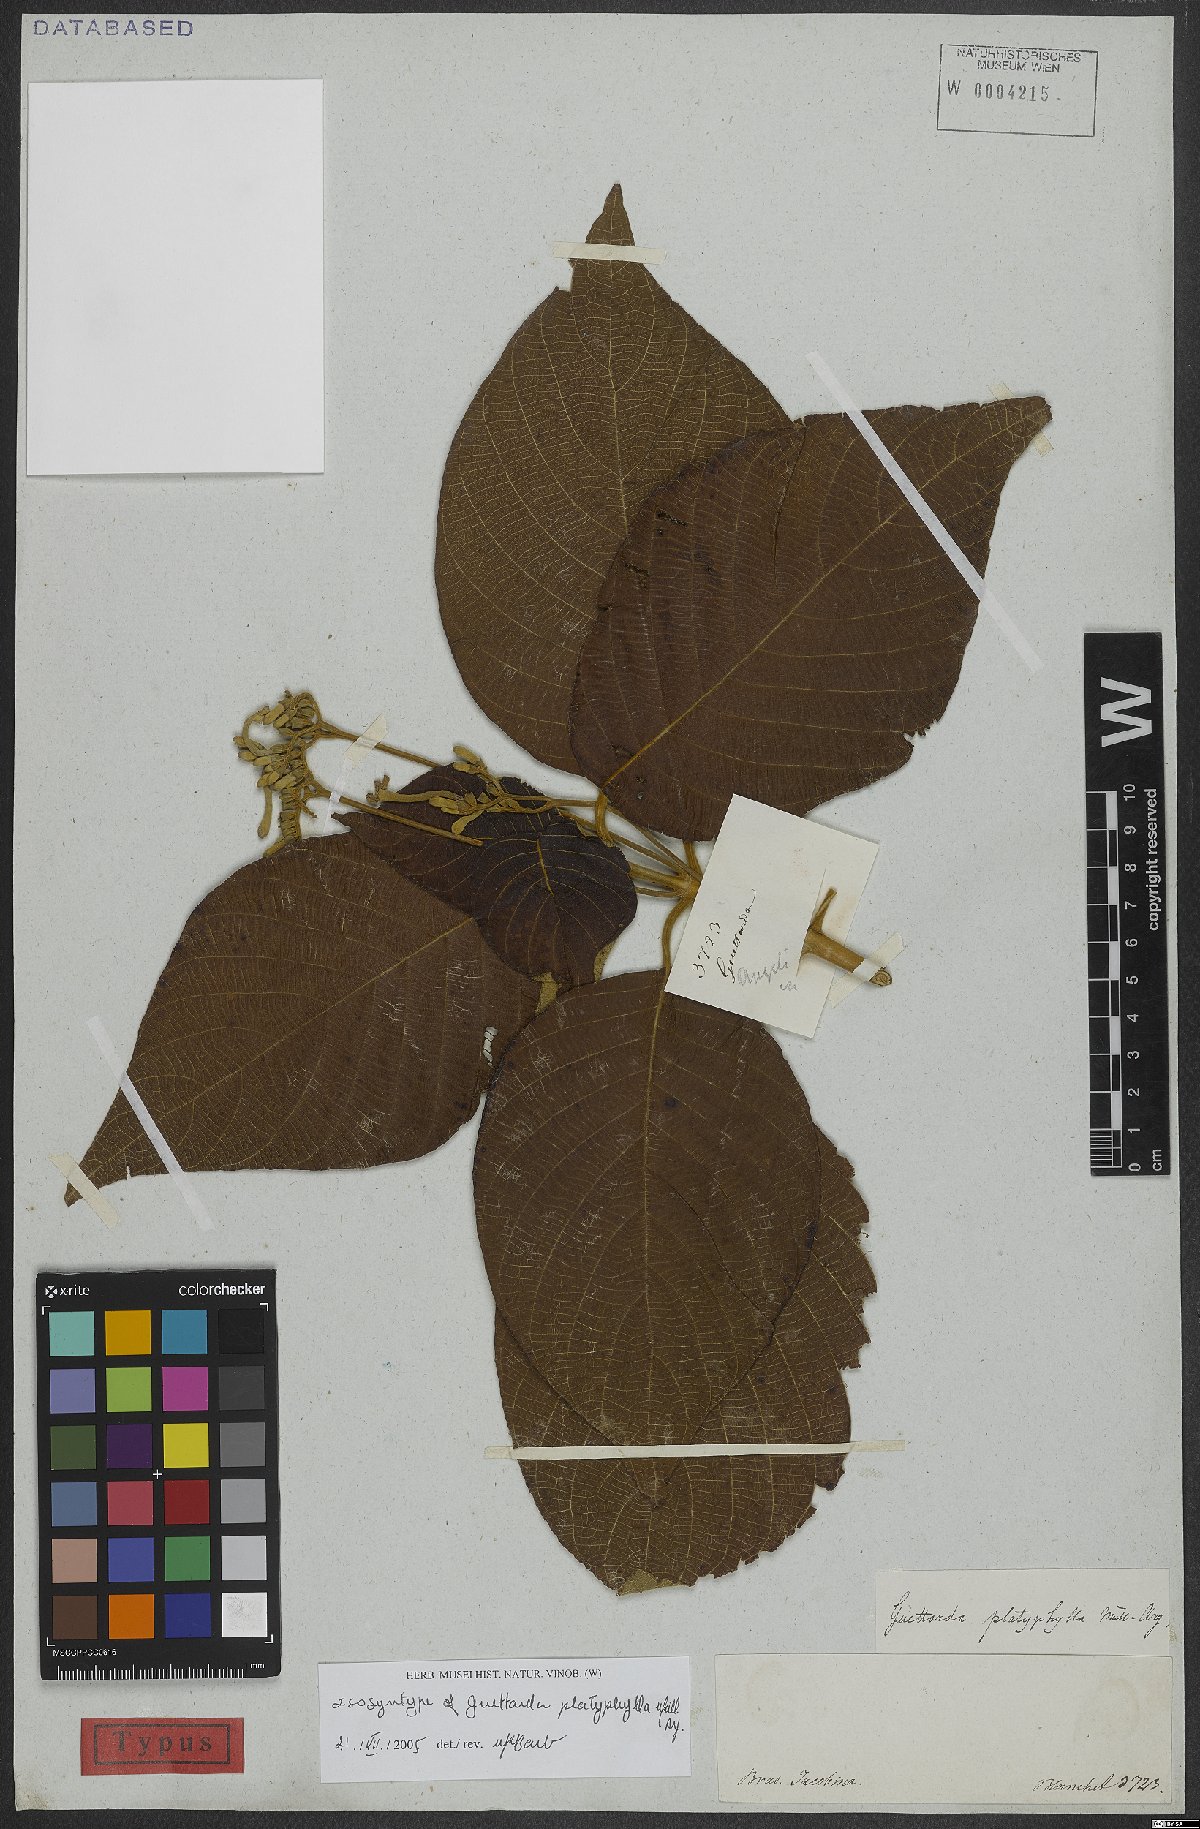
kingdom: Plantae
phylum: Tracheophyta
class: Magnoliopsida
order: Gentianales
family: Rubiaceae
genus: Guettarda
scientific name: Guettarda viburnoides
